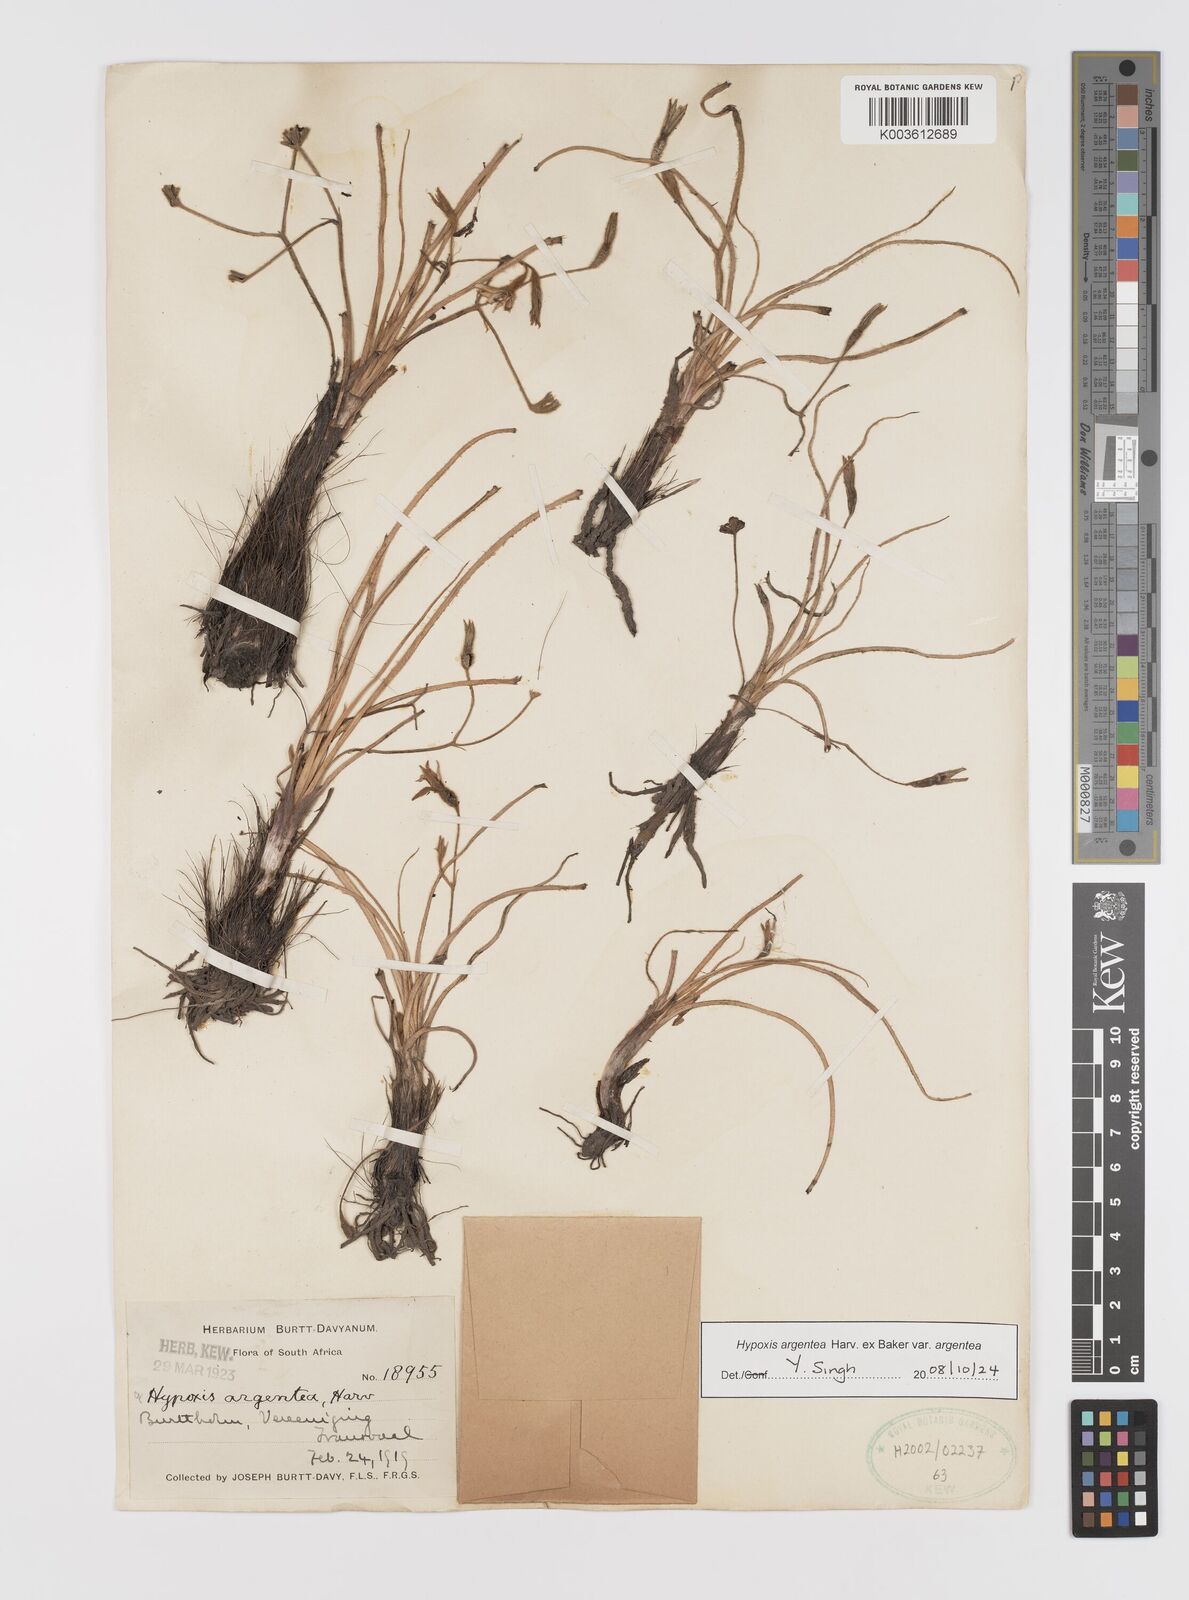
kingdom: Plantae
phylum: Tracheophyta
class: Liliopsida
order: Asparagales
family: Hypoxidaceae
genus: Hypoxis
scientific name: Hypoxis argentea
